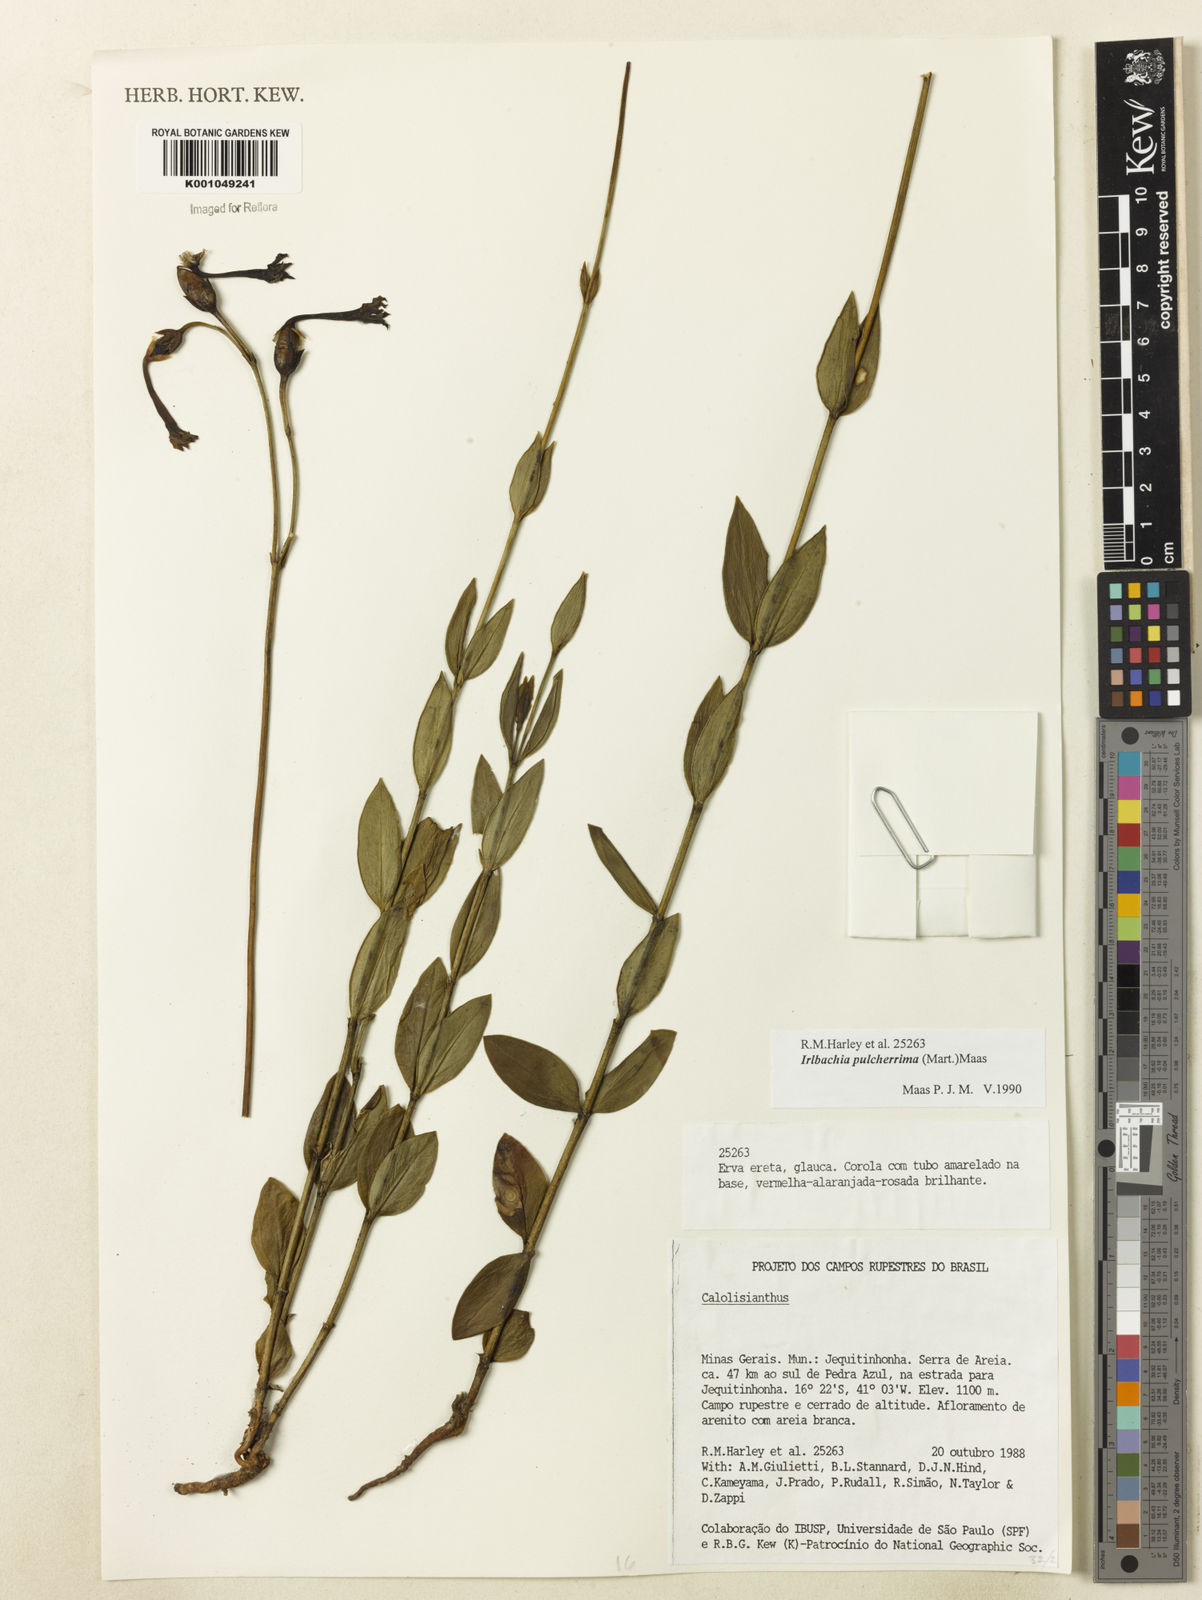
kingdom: Plantae
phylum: Tracheophyta
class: Magnoliopsida
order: Gentianales
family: Gentianaceae
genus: Calolisianthus
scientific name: Calolisianthus pulcherrimus
